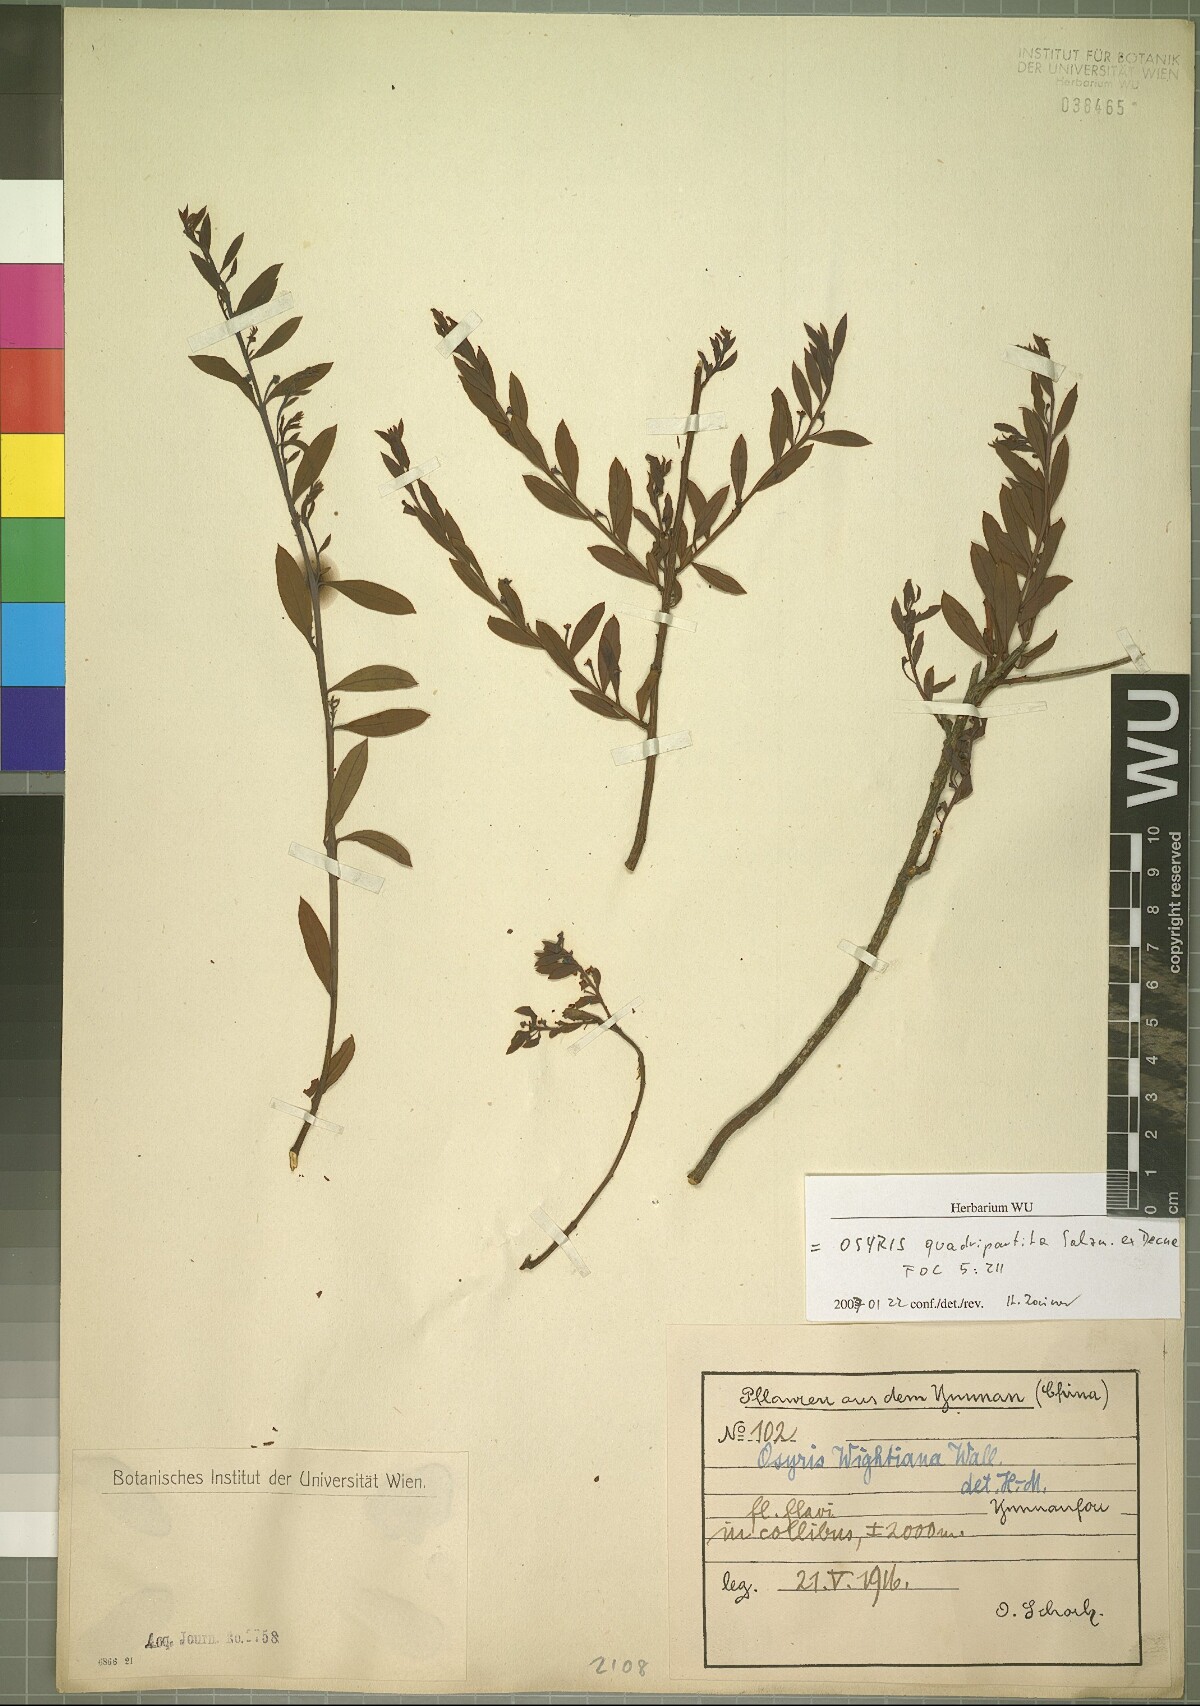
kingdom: Plantae
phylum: Tracheophyta
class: Magnoliopsida
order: Santalales
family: Santalaceae
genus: Osyris
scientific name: Osyris quadripartita
